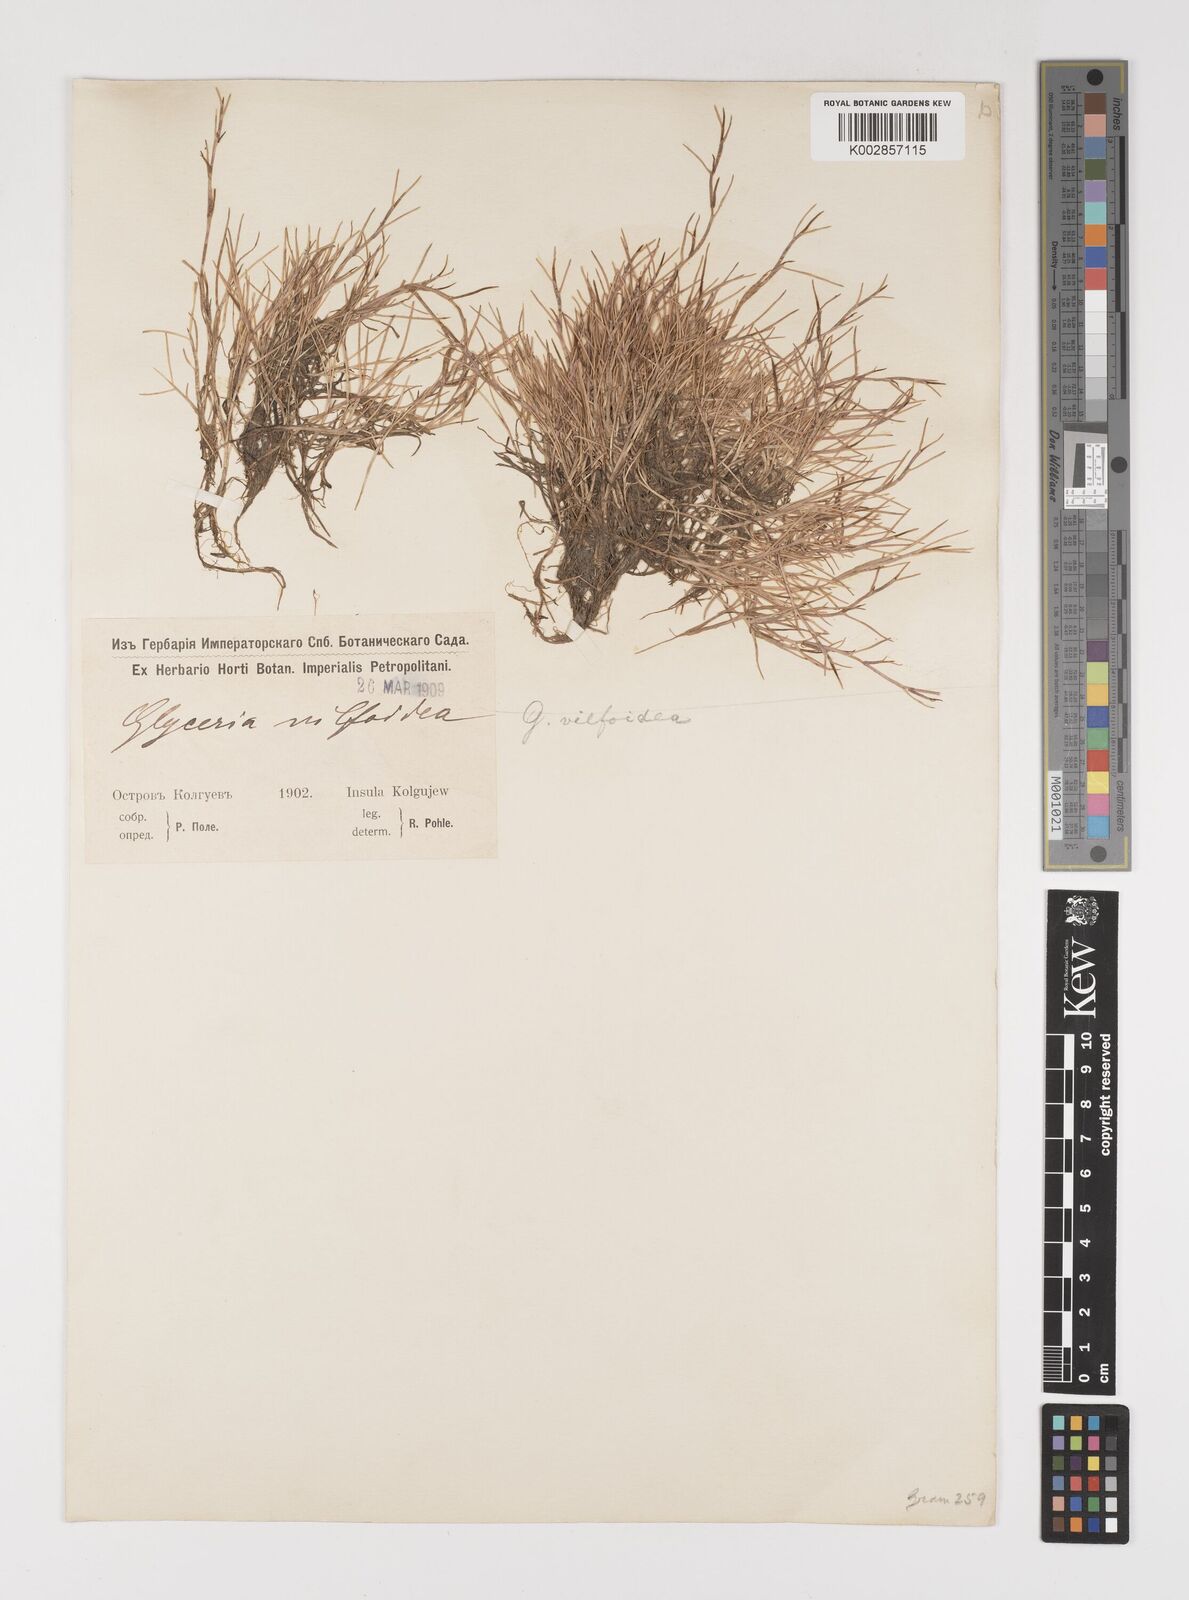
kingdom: Plantae
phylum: Tracheophyta
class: Liliopsida
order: Poales
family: Poaceae
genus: Puccinellia
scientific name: Puccinellia phryganodes
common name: Creeping alkaligrass
